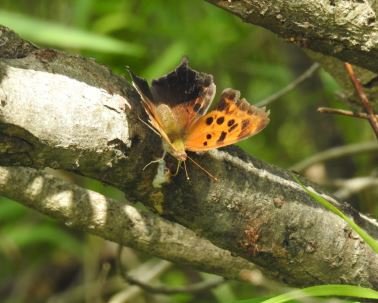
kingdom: Animalia
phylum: Arthropoda
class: Insecta
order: Lepidoptera
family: Nymphalidae
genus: Polygonia
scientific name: Polygonia interrogationis
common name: Question Mark
